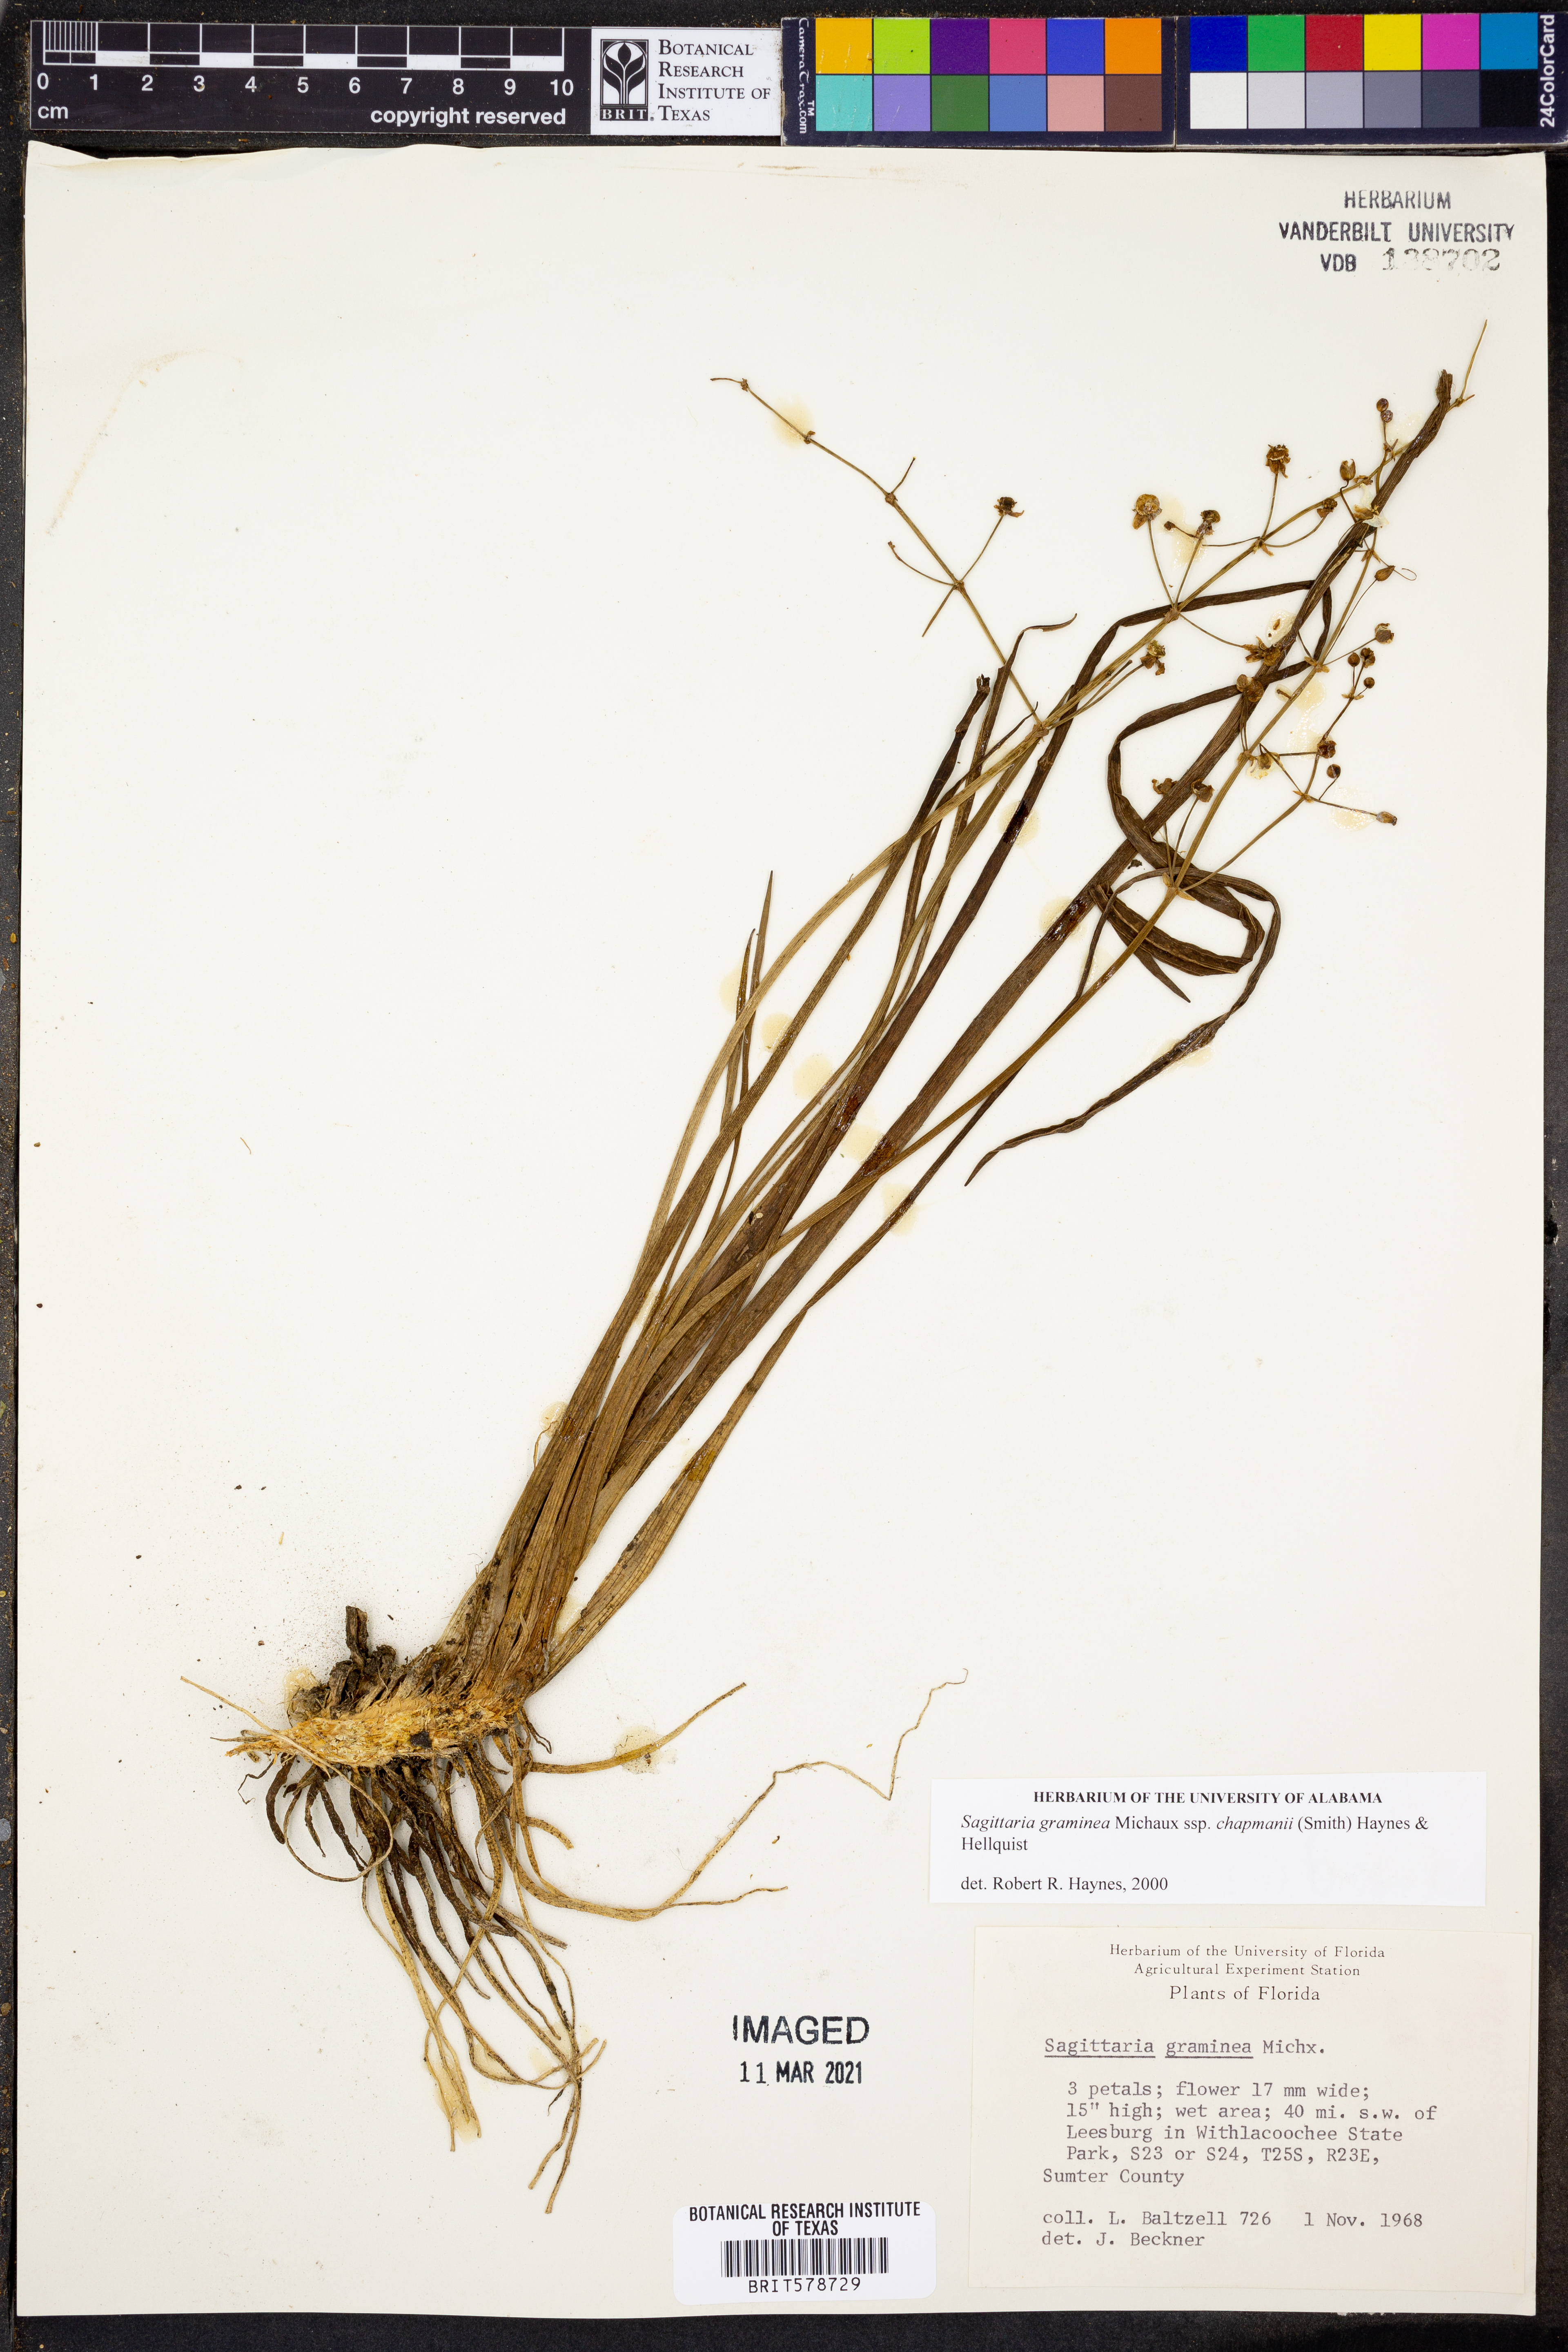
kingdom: Plantae
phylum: Tracheophyta
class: Liliopsida
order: Alismatales
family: Alismataceae
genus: Sagittaria
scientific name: Sagittaria chapmanii
